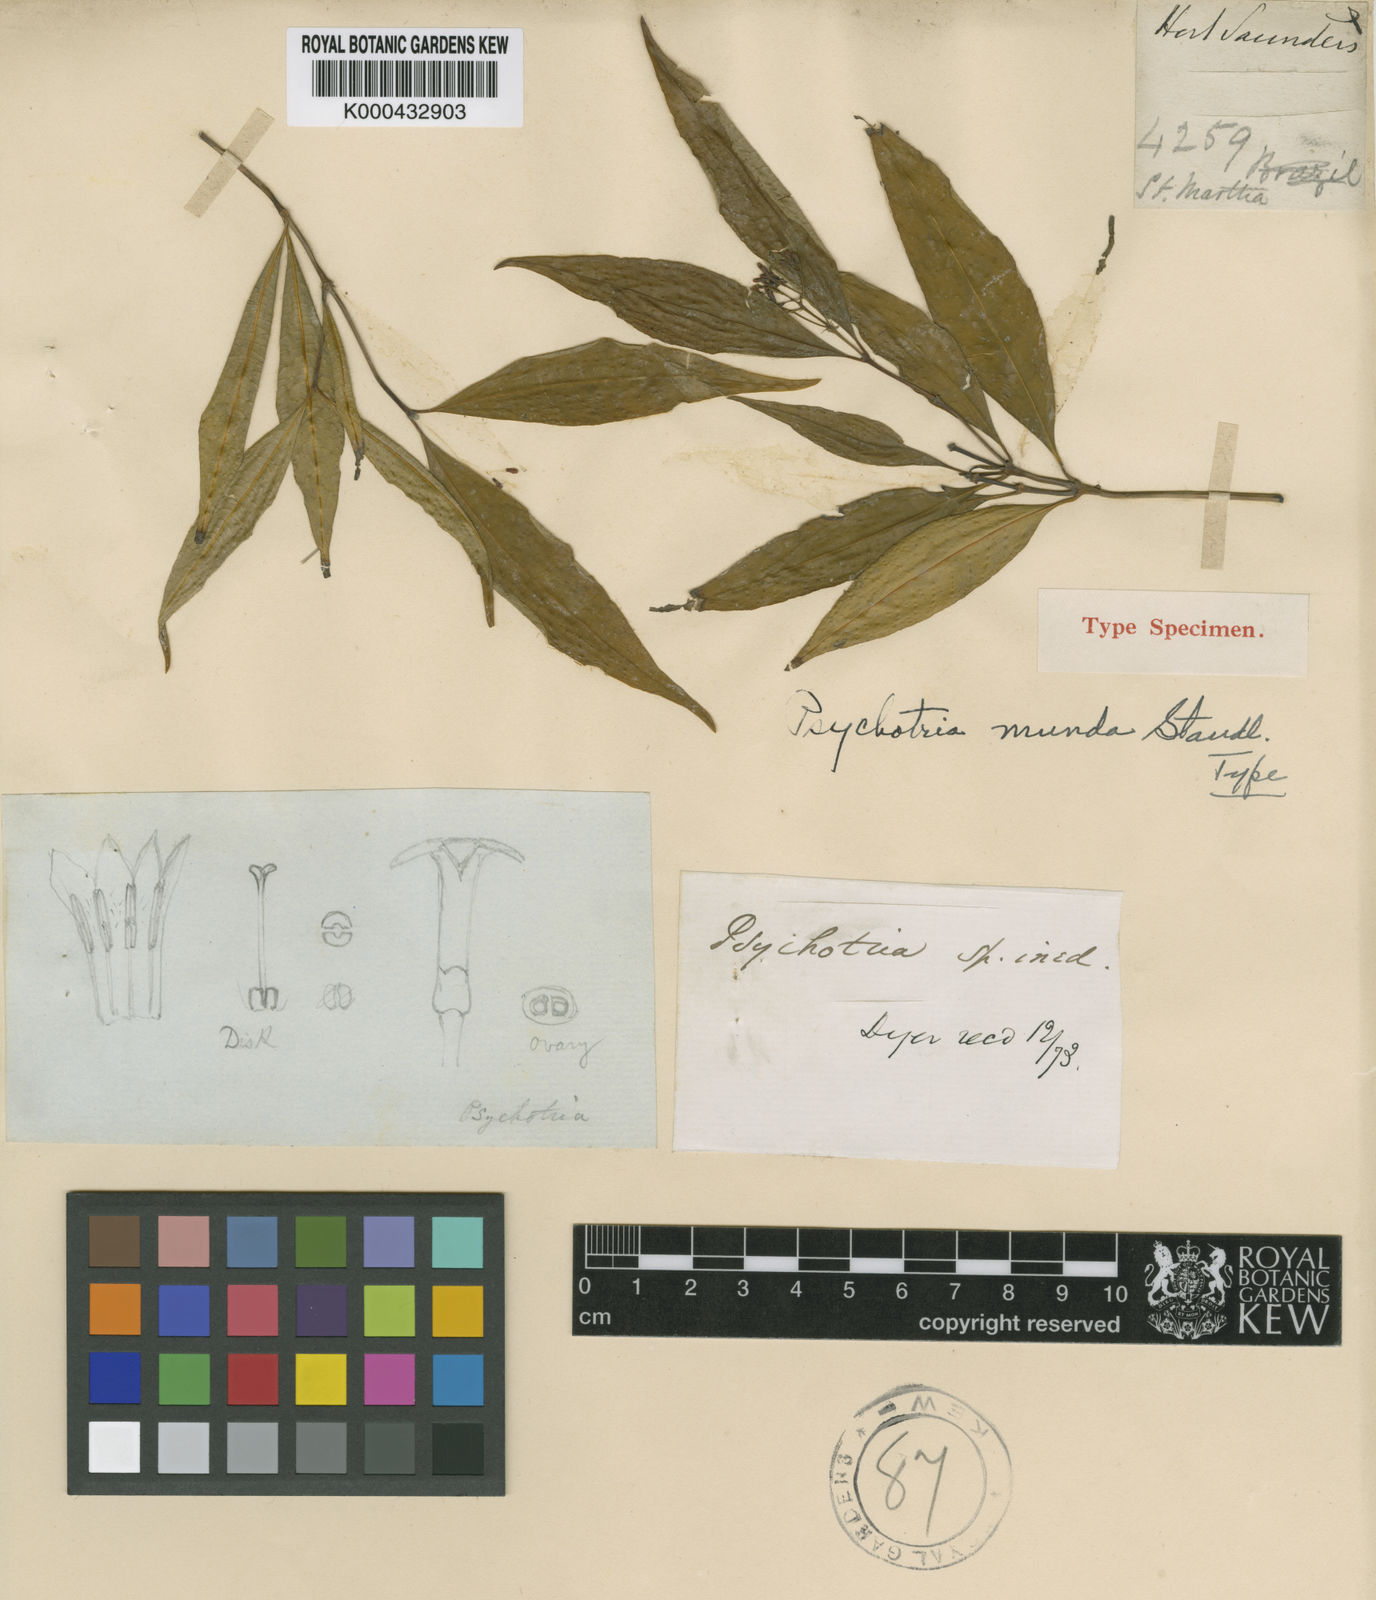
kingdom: Plantae
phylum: Tracheophyta
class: Magnoliopsida
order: Gentianales
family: Rubiaceae
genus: Psychotria
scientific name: Psychotria munda
